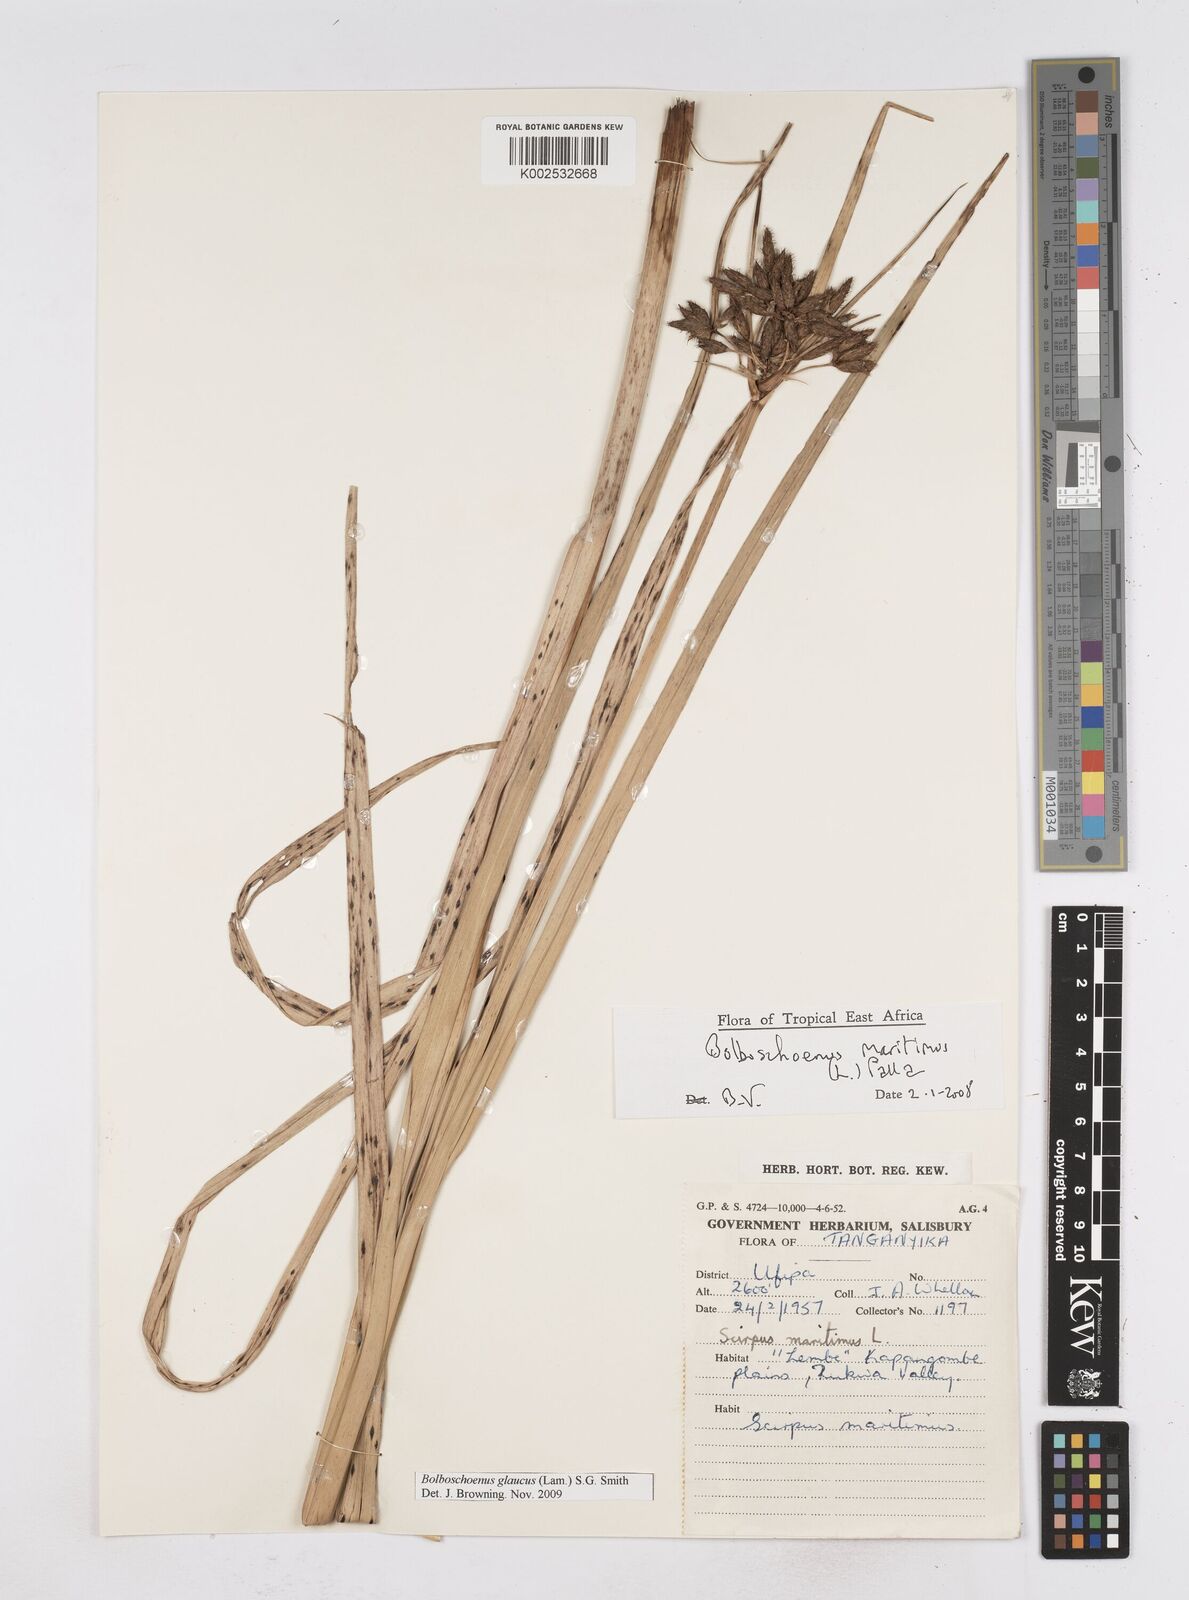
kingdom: Plantae
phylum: Tracheophyta
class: Liliopsida
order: Poales
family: Cyperaceae
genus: Bolboschoenus
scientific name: Bolboschoenus glaucus
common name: Tuberous bulrush
